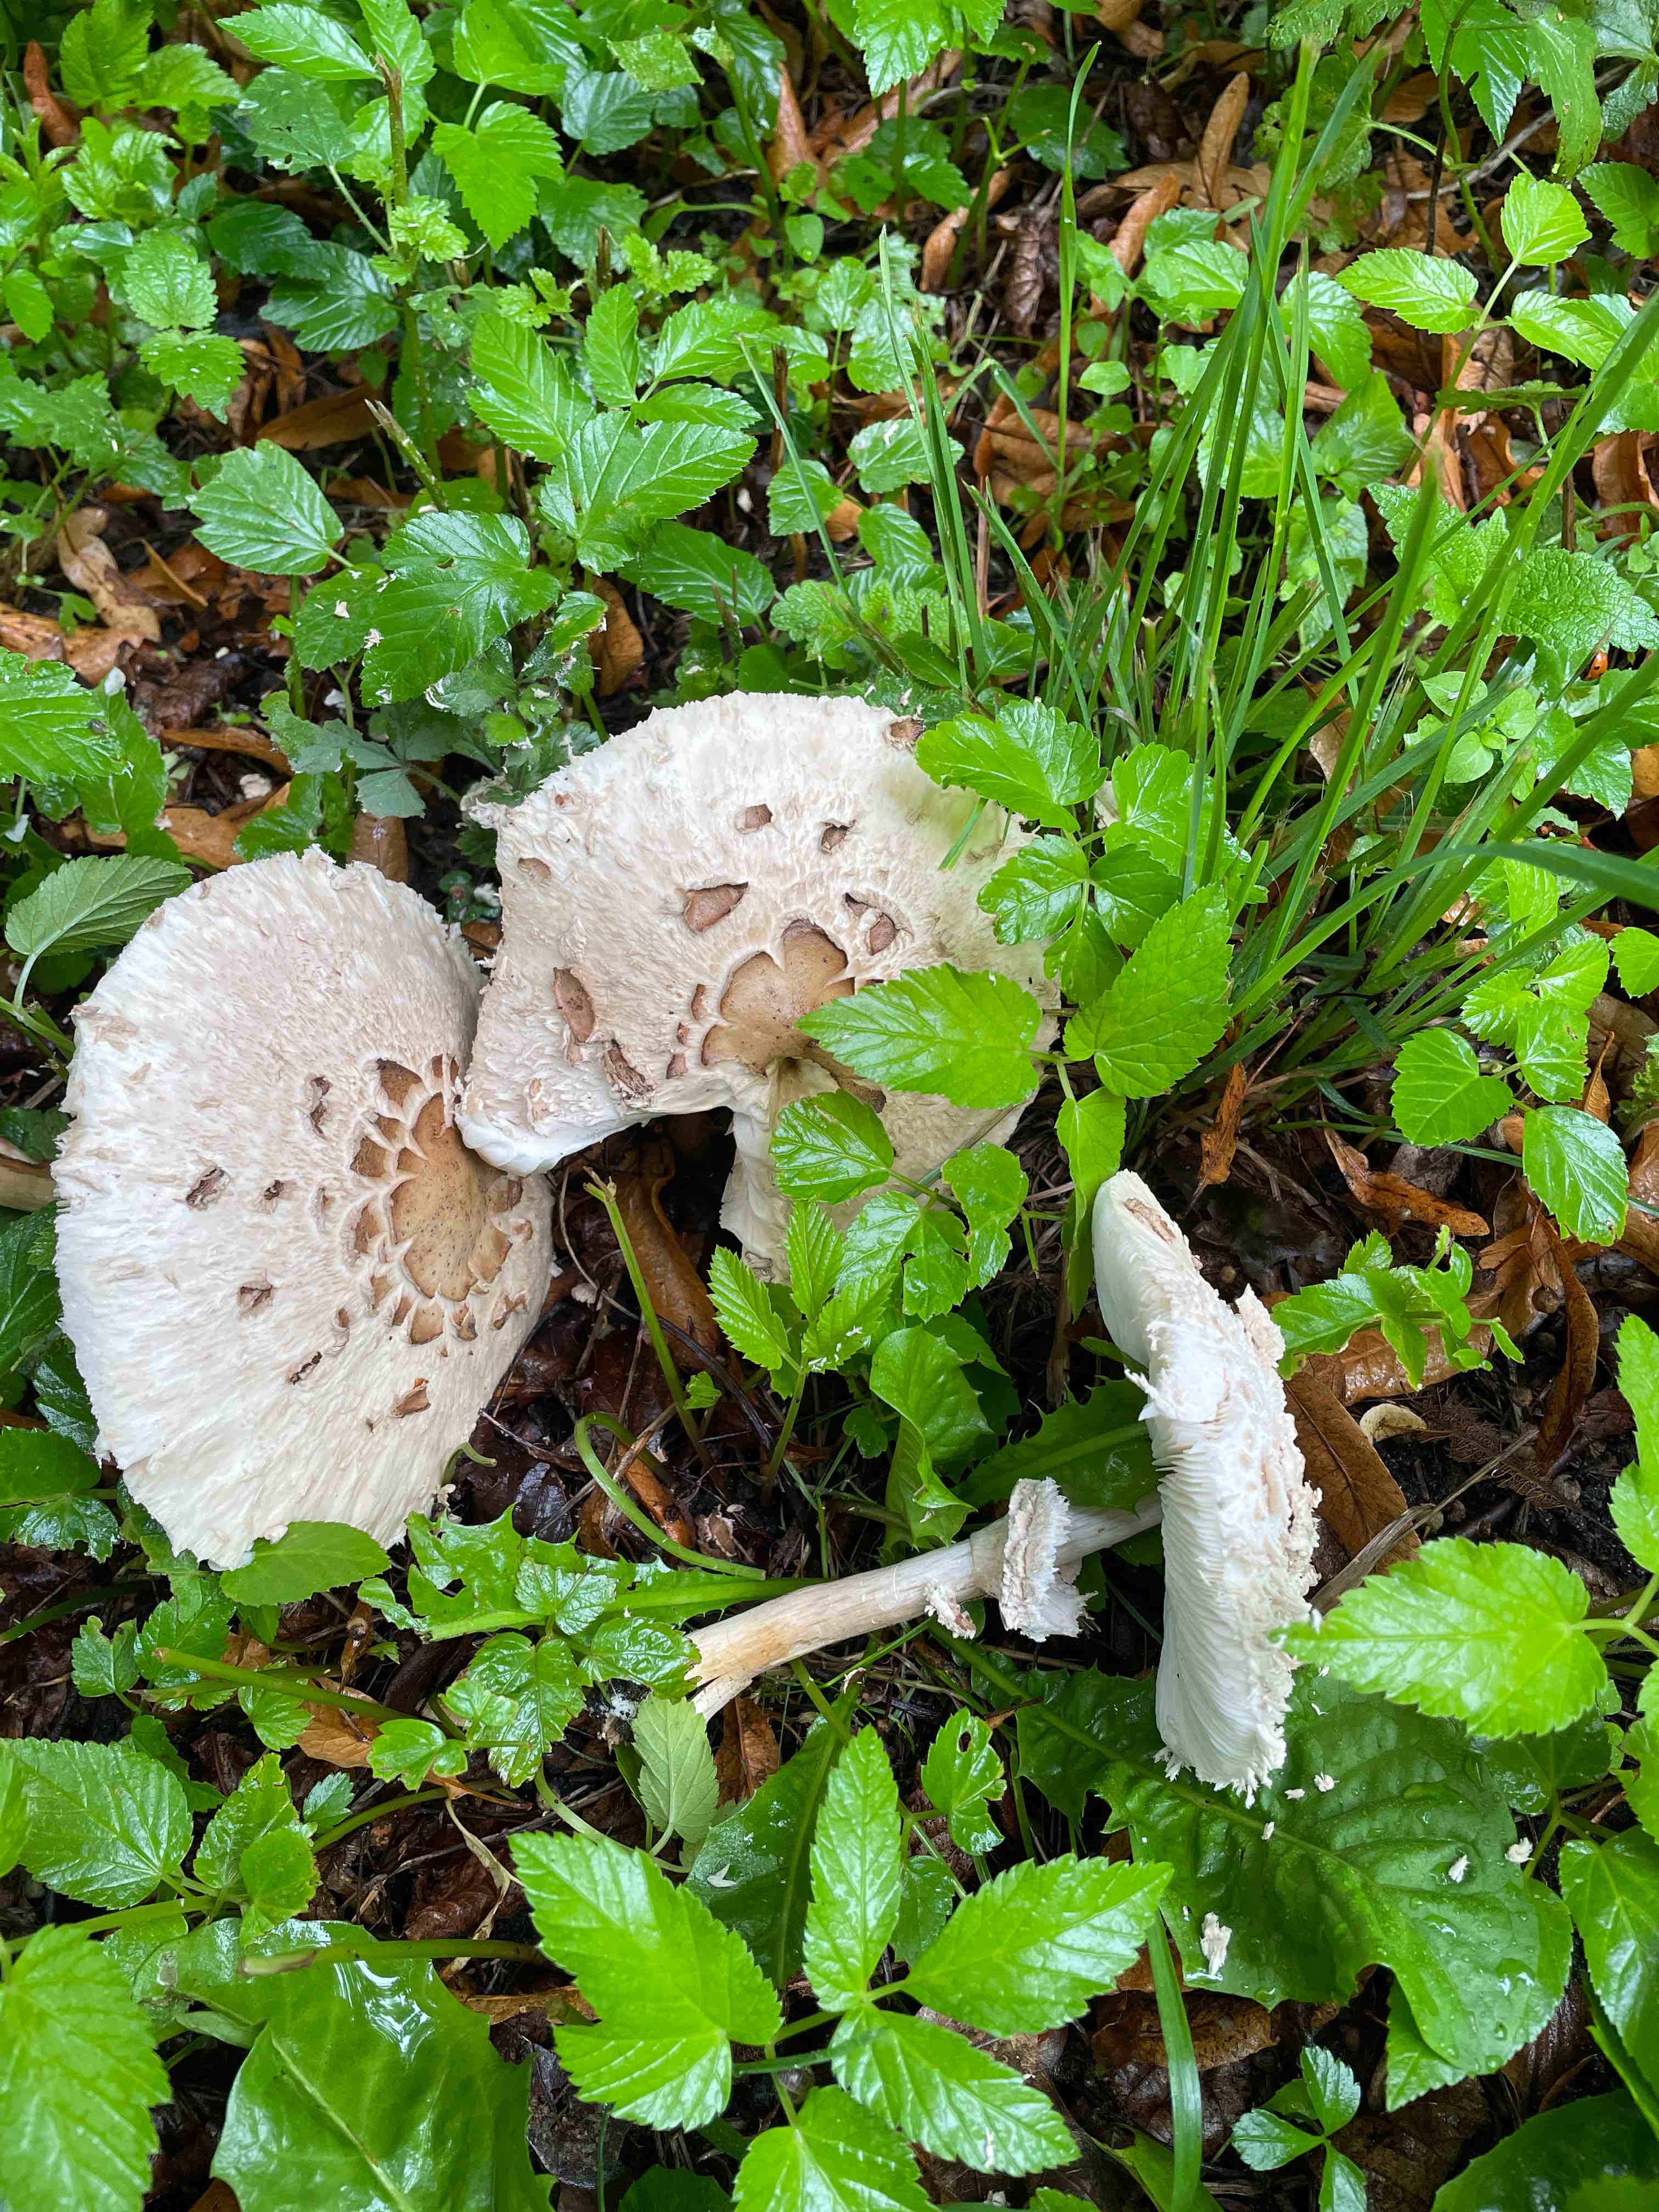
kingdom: Fungi
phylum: Basidiomycota
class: Agaricomycetes
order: Agaricales
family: Agaricaceae
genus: Chlorophyllum
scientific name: Chlorophyllum rhacodes
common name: ægte rabarberhat
